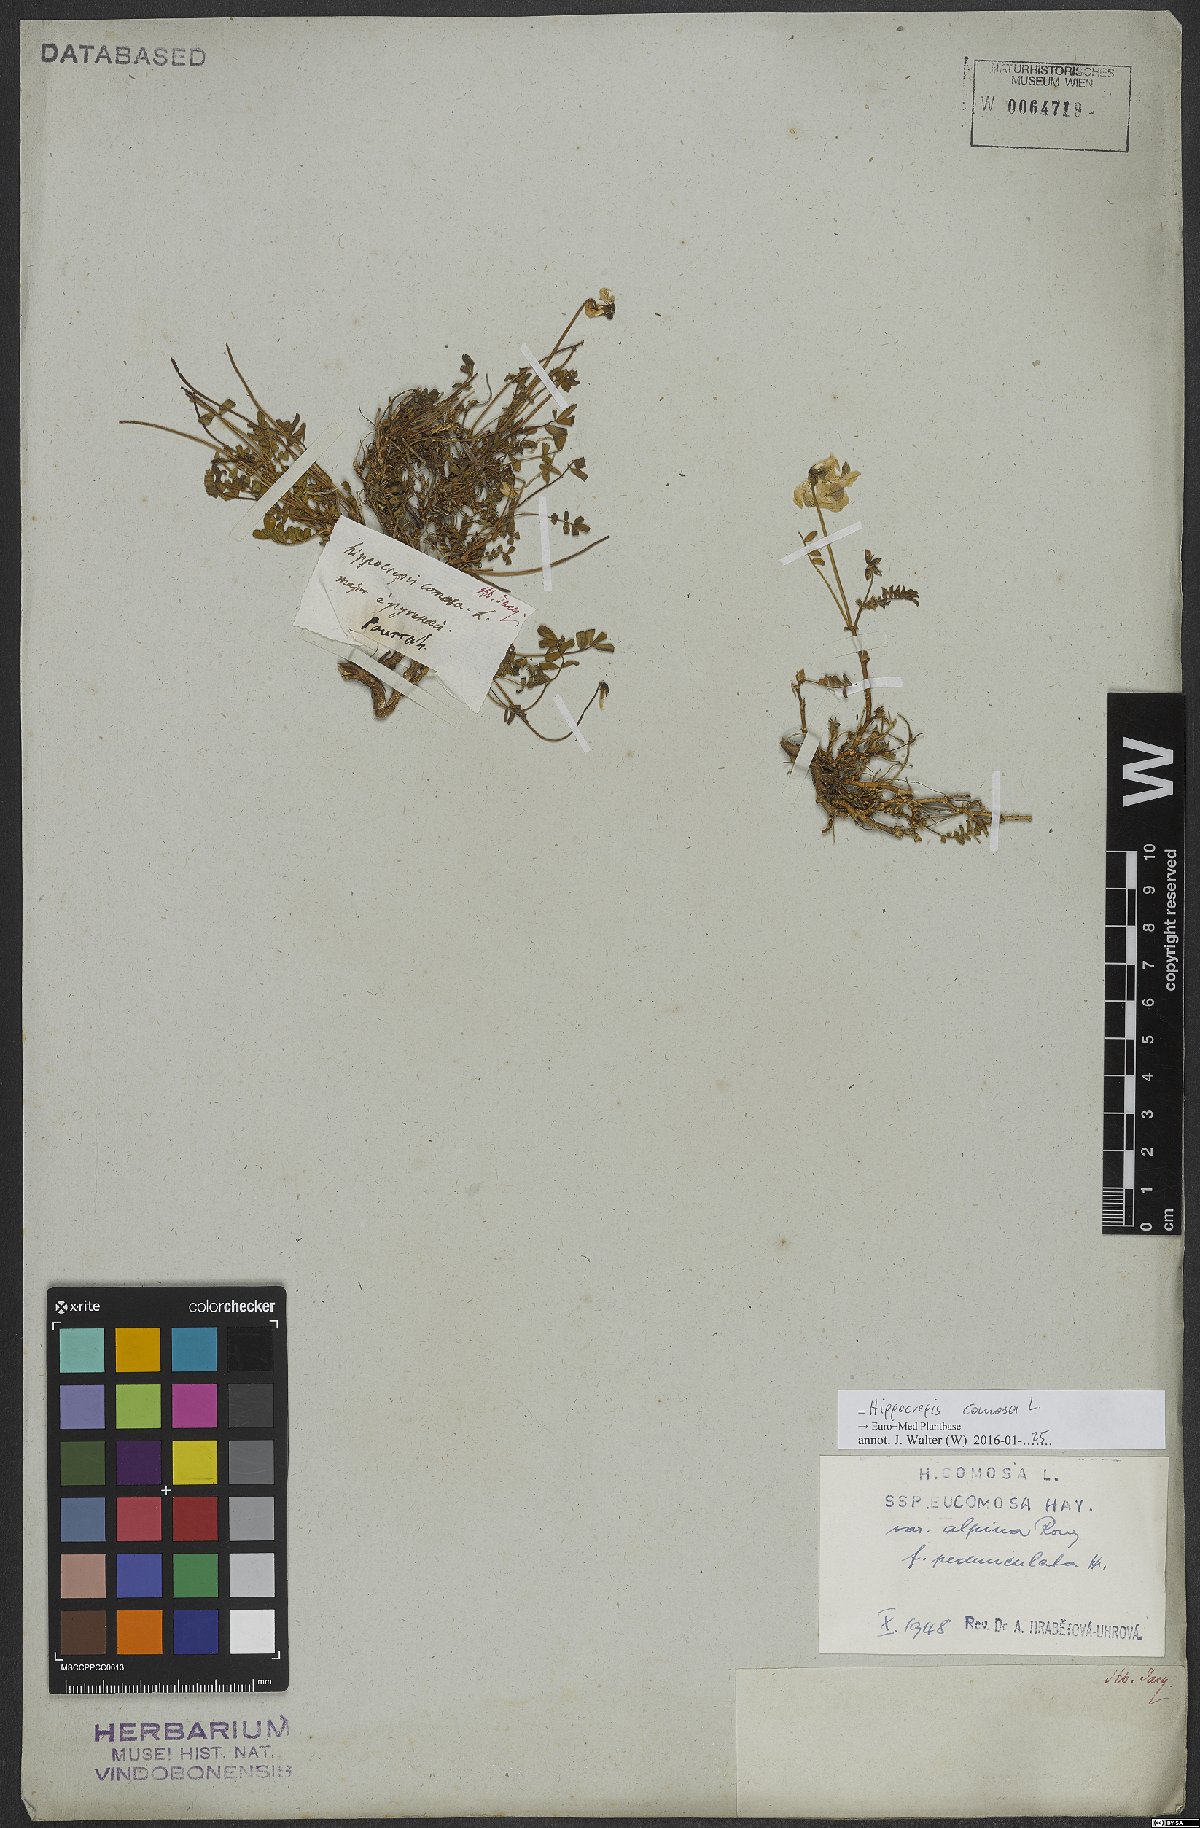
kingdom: Plantae
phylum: Tracheophyta
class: Magnoliopsida
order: Fabales
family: Fabaceae
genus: Hippocrepis
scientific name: Hippocrepis comosa
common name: Horseshoe vetch
